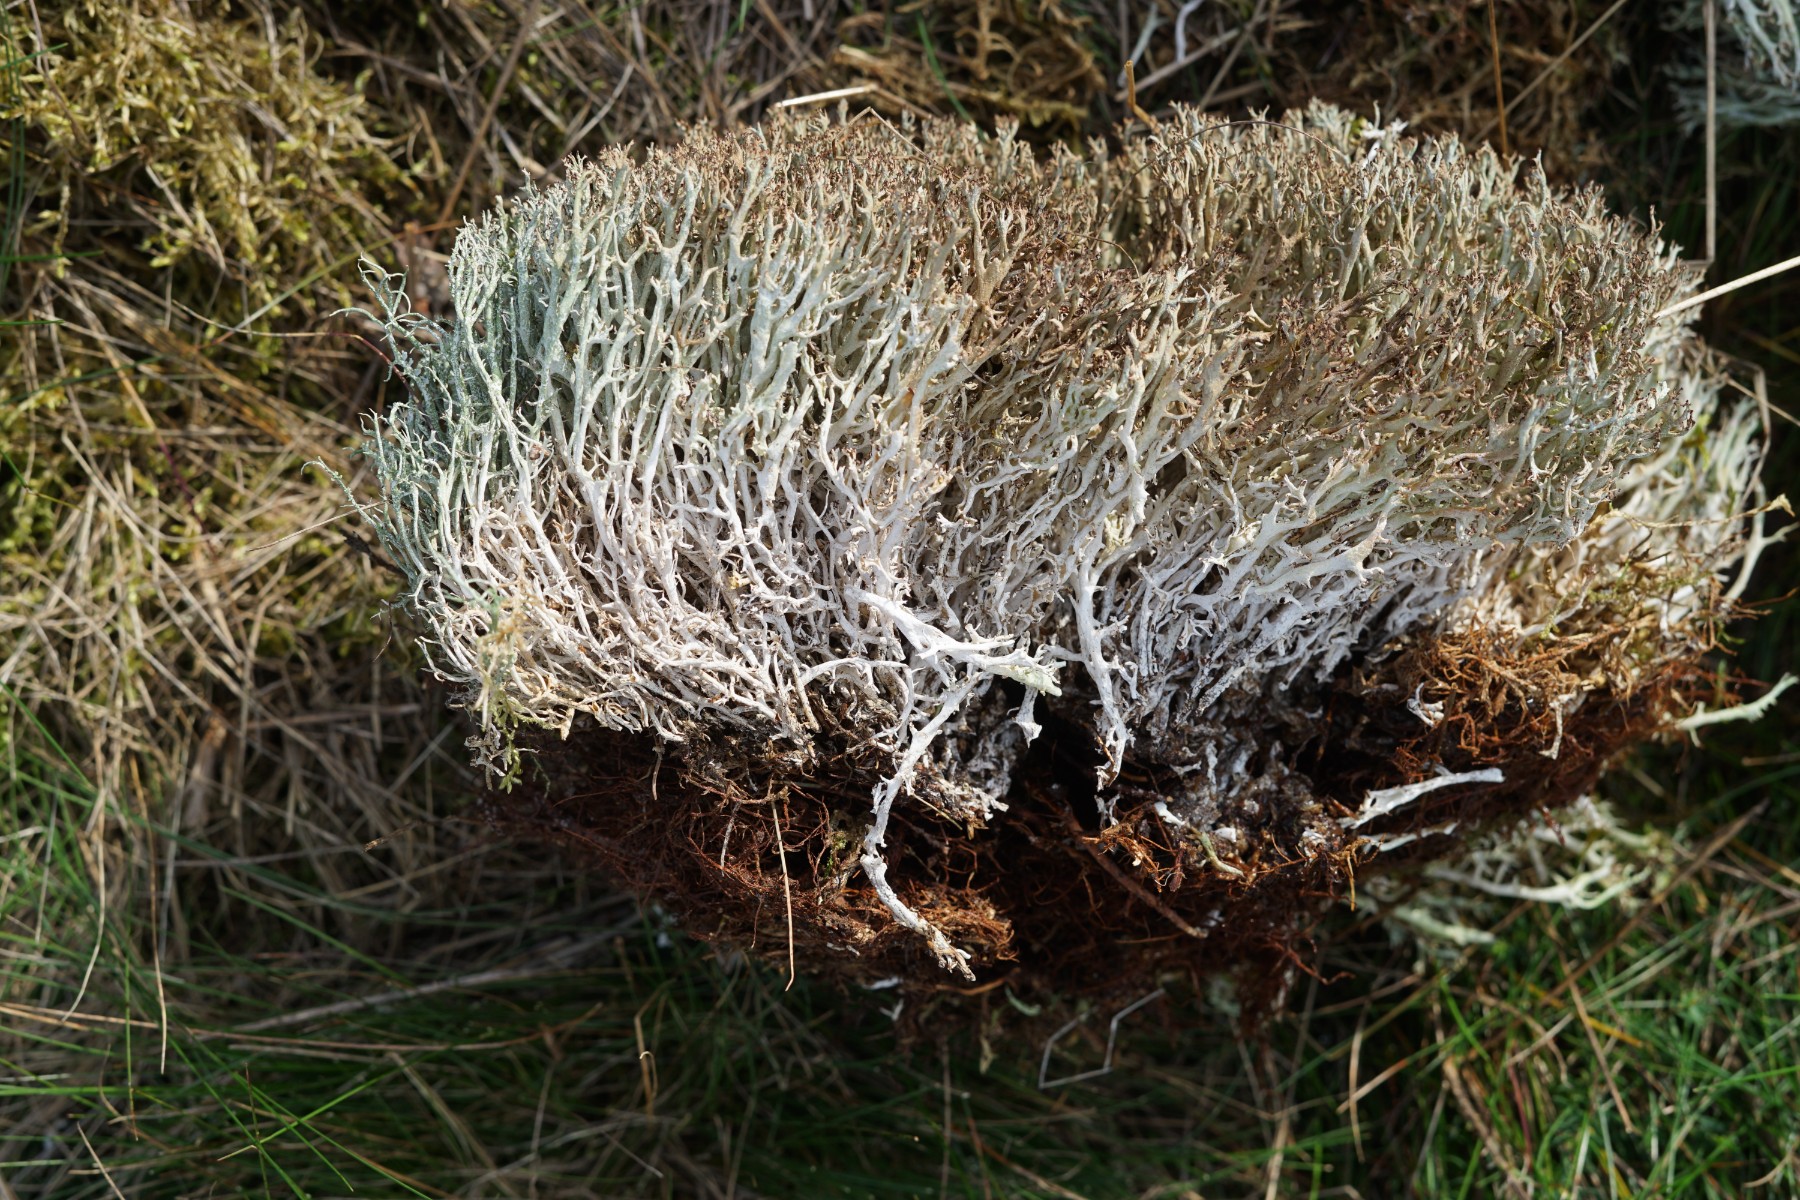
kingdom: Fungi
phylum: Ascomycota
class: Lecanoromycetes
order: Lecanorales
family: Cladoniaceae
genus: Cladonia
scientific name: Cladonia rangiformis
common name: spættet bægerlav
